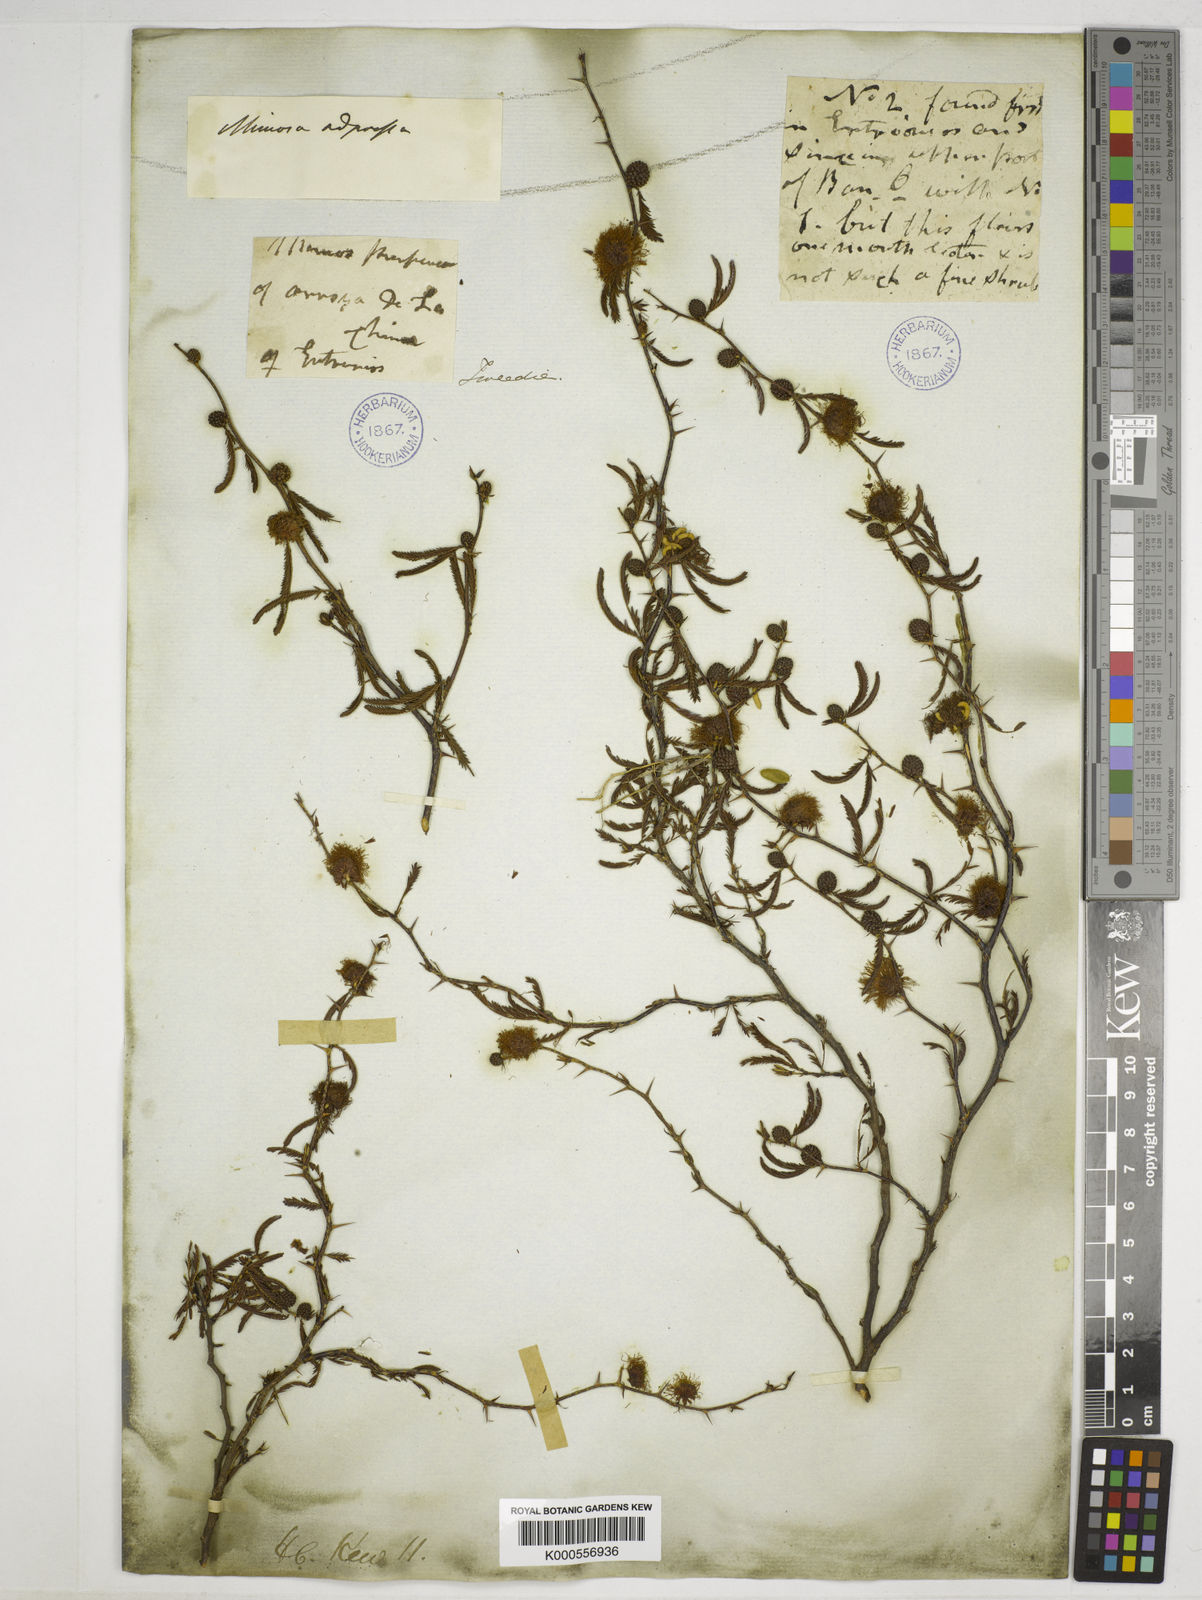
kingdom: Plantae
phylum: Tracheophyta
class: Magnoliopsida
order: Fabales
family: Fabaceae
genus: Mimosa
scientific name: Mimosa adpressa
